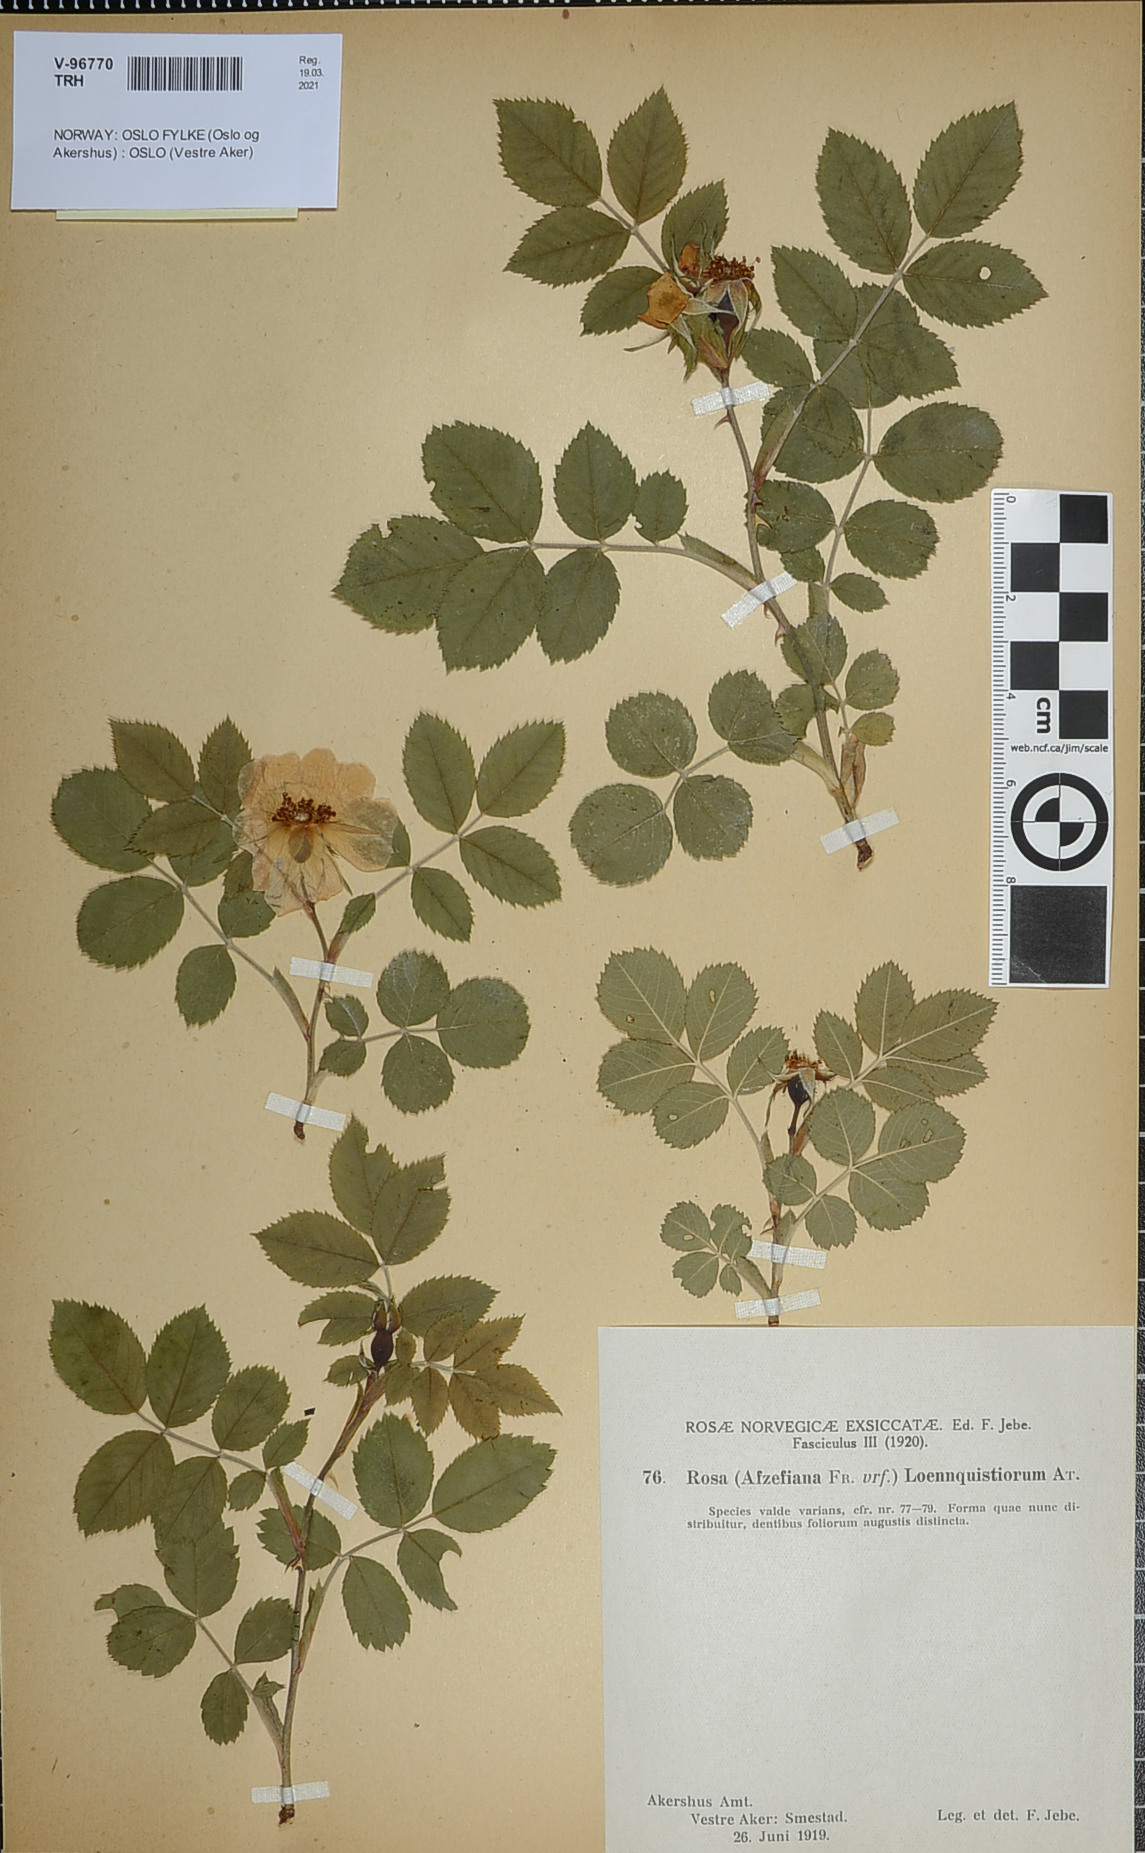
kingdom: Plantae
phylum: Tracheophyta
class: Magnoliopsida
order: Rosales
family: Rosaceae
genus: Rosa
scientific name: Rosa loenquistiorum
